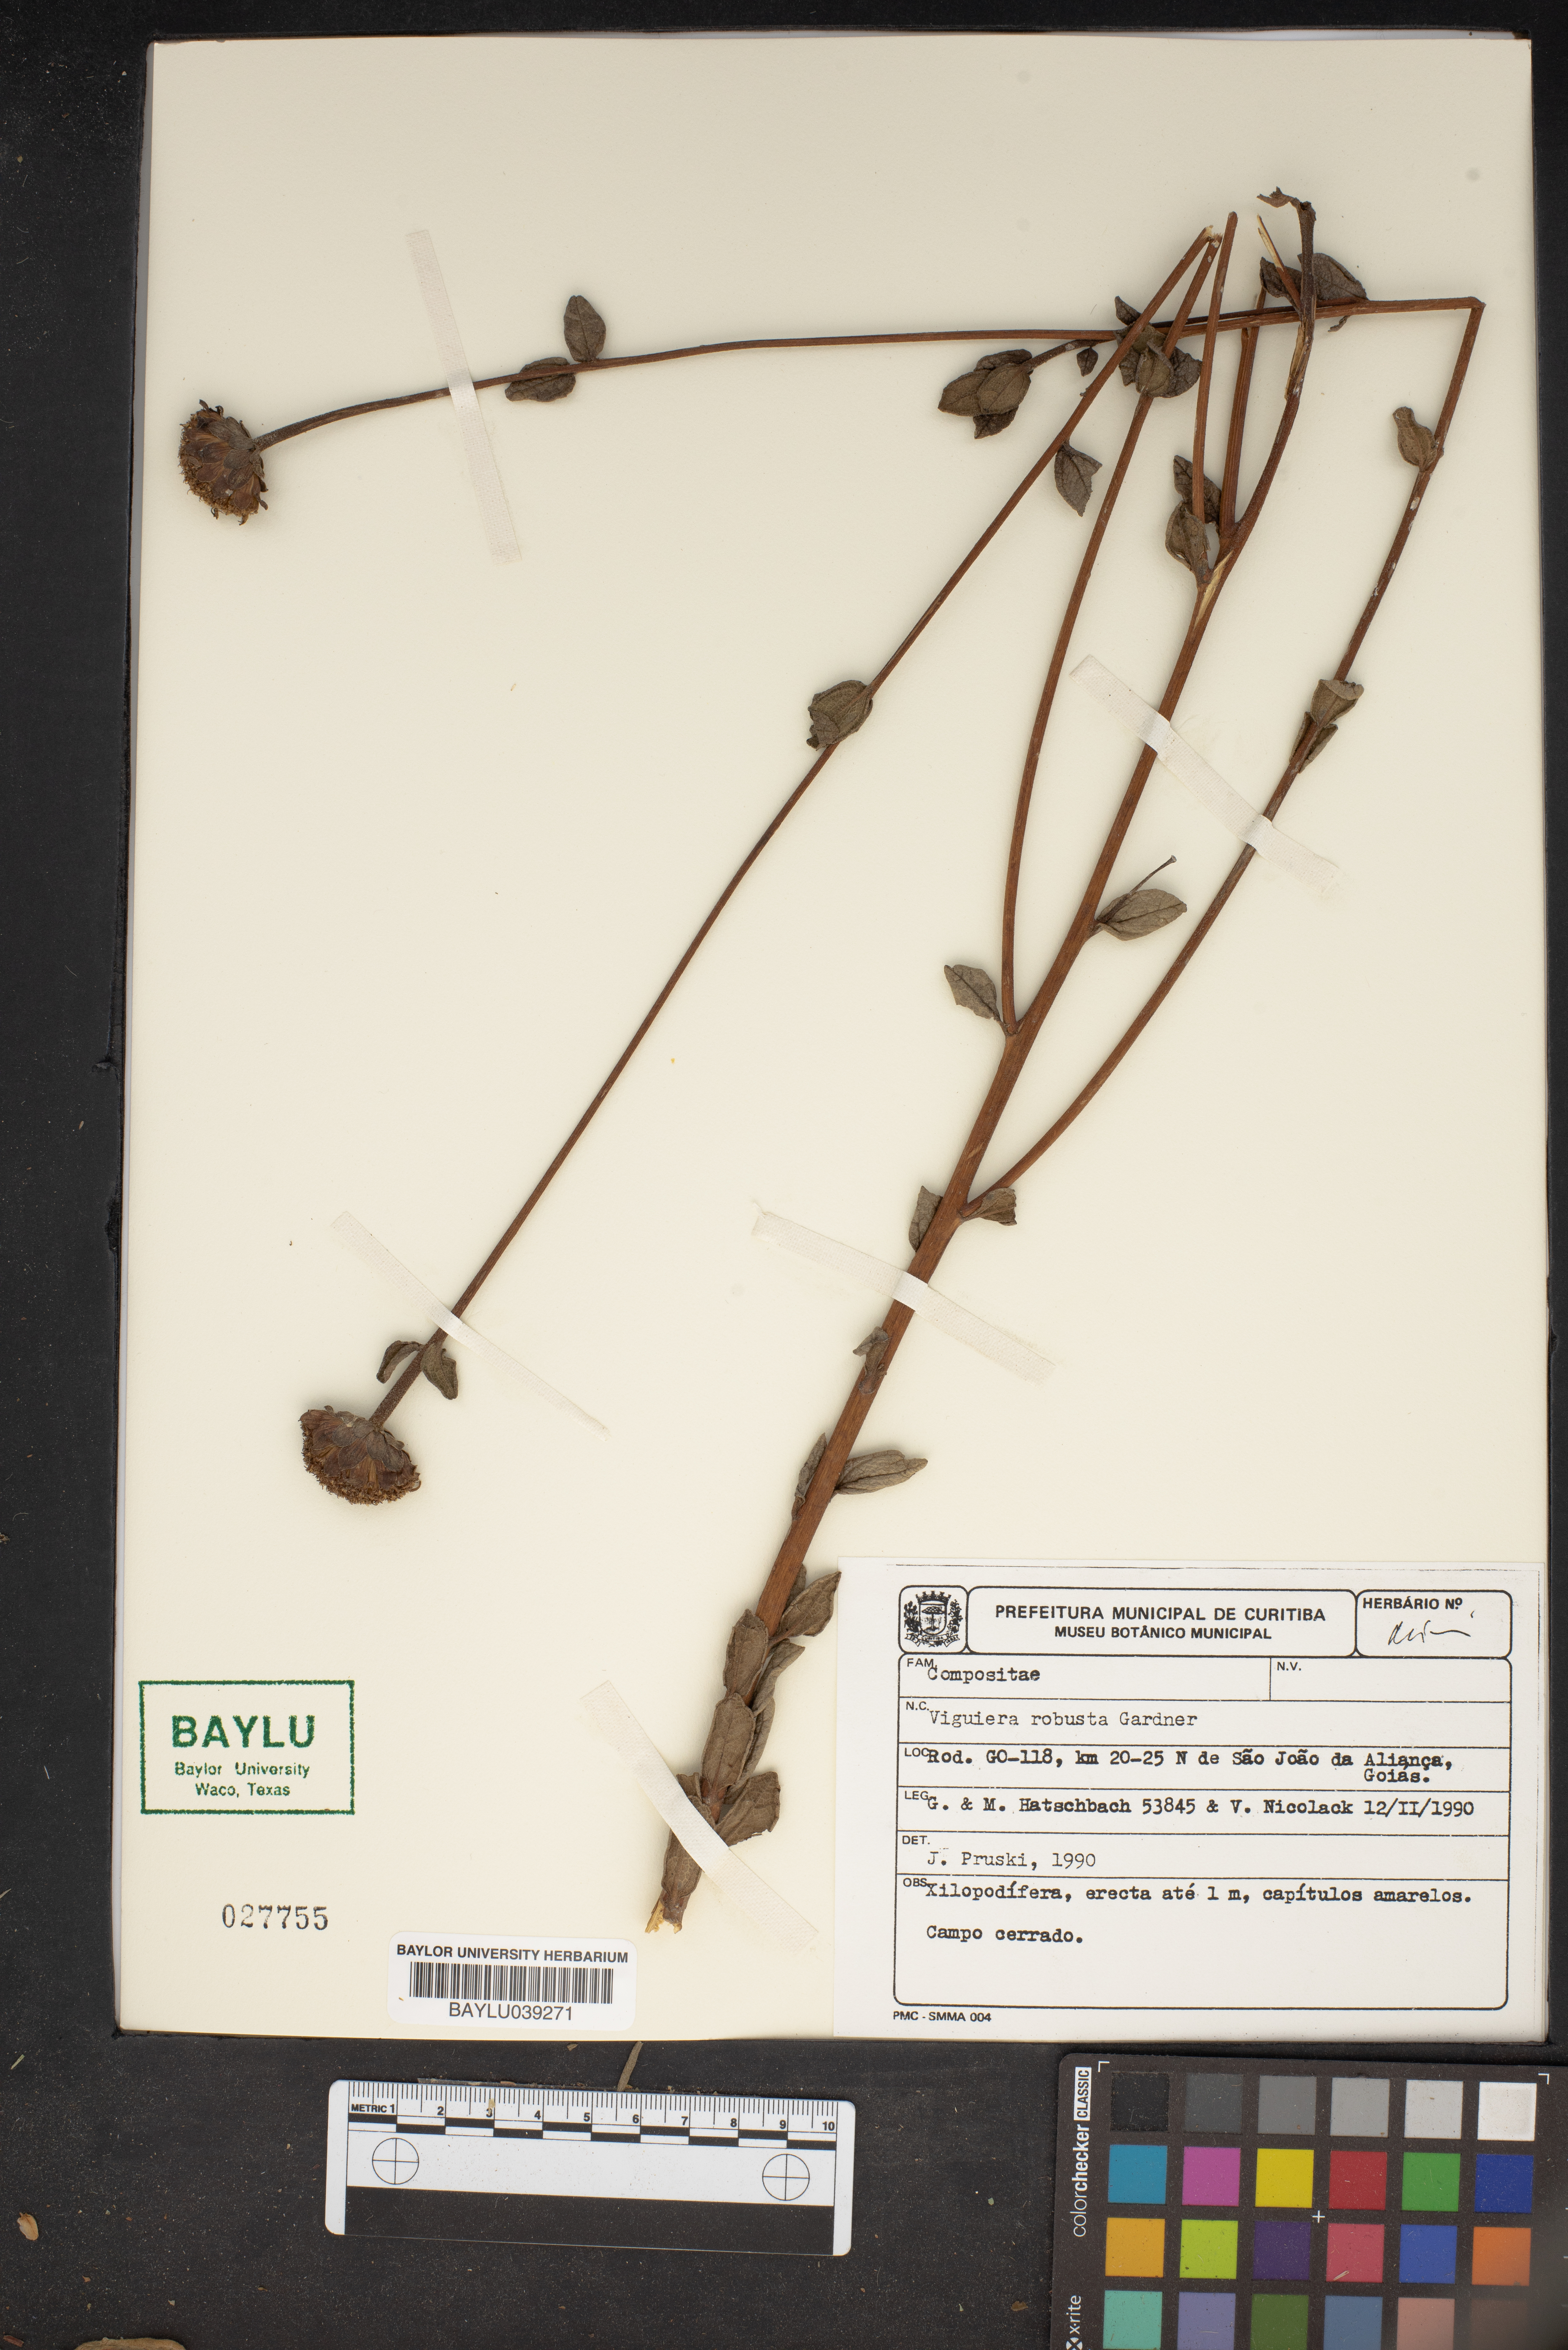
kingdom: Plantae
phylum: Tracheophyta
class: Magnoliopsida
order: Asterales
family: Asteraceae
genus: Aldama
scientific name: Aldama robusta
